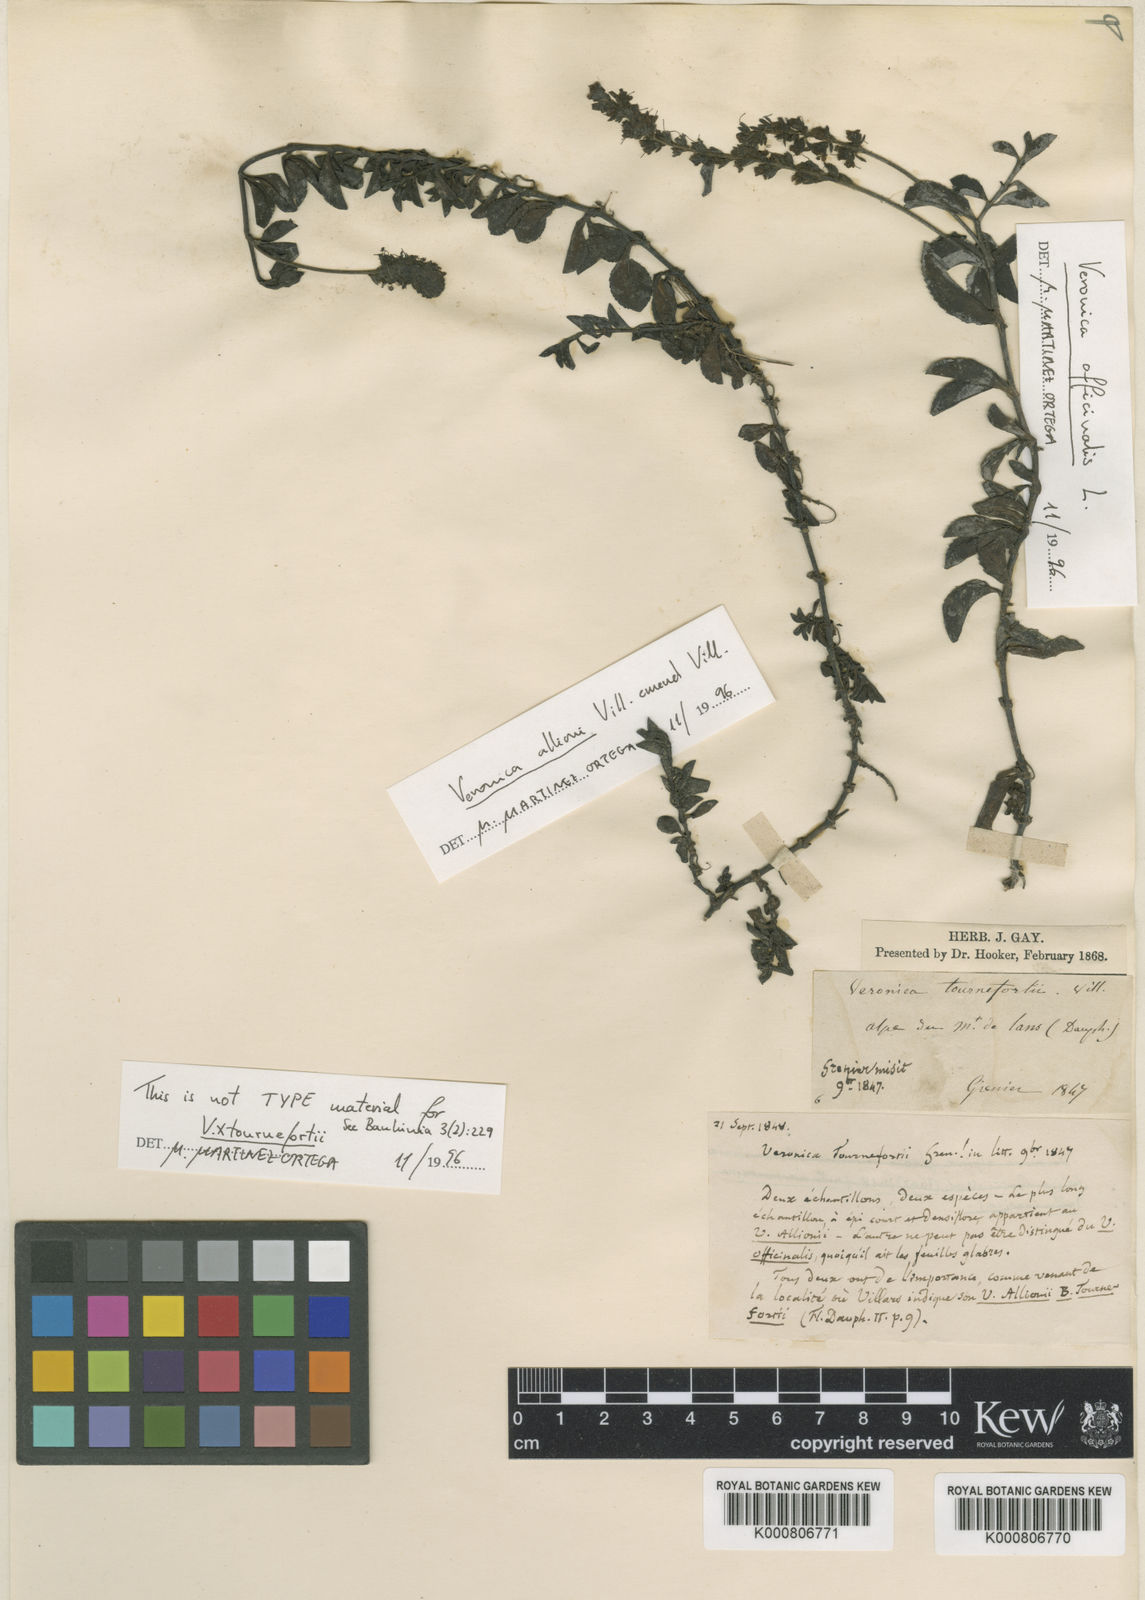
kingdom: Plantae
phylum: Tracheophyta
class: Magnoliopsida
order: Lamiales
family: Plantaginaceae
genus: Veronica
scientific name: Veronica officinalis
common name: Common speedwell
